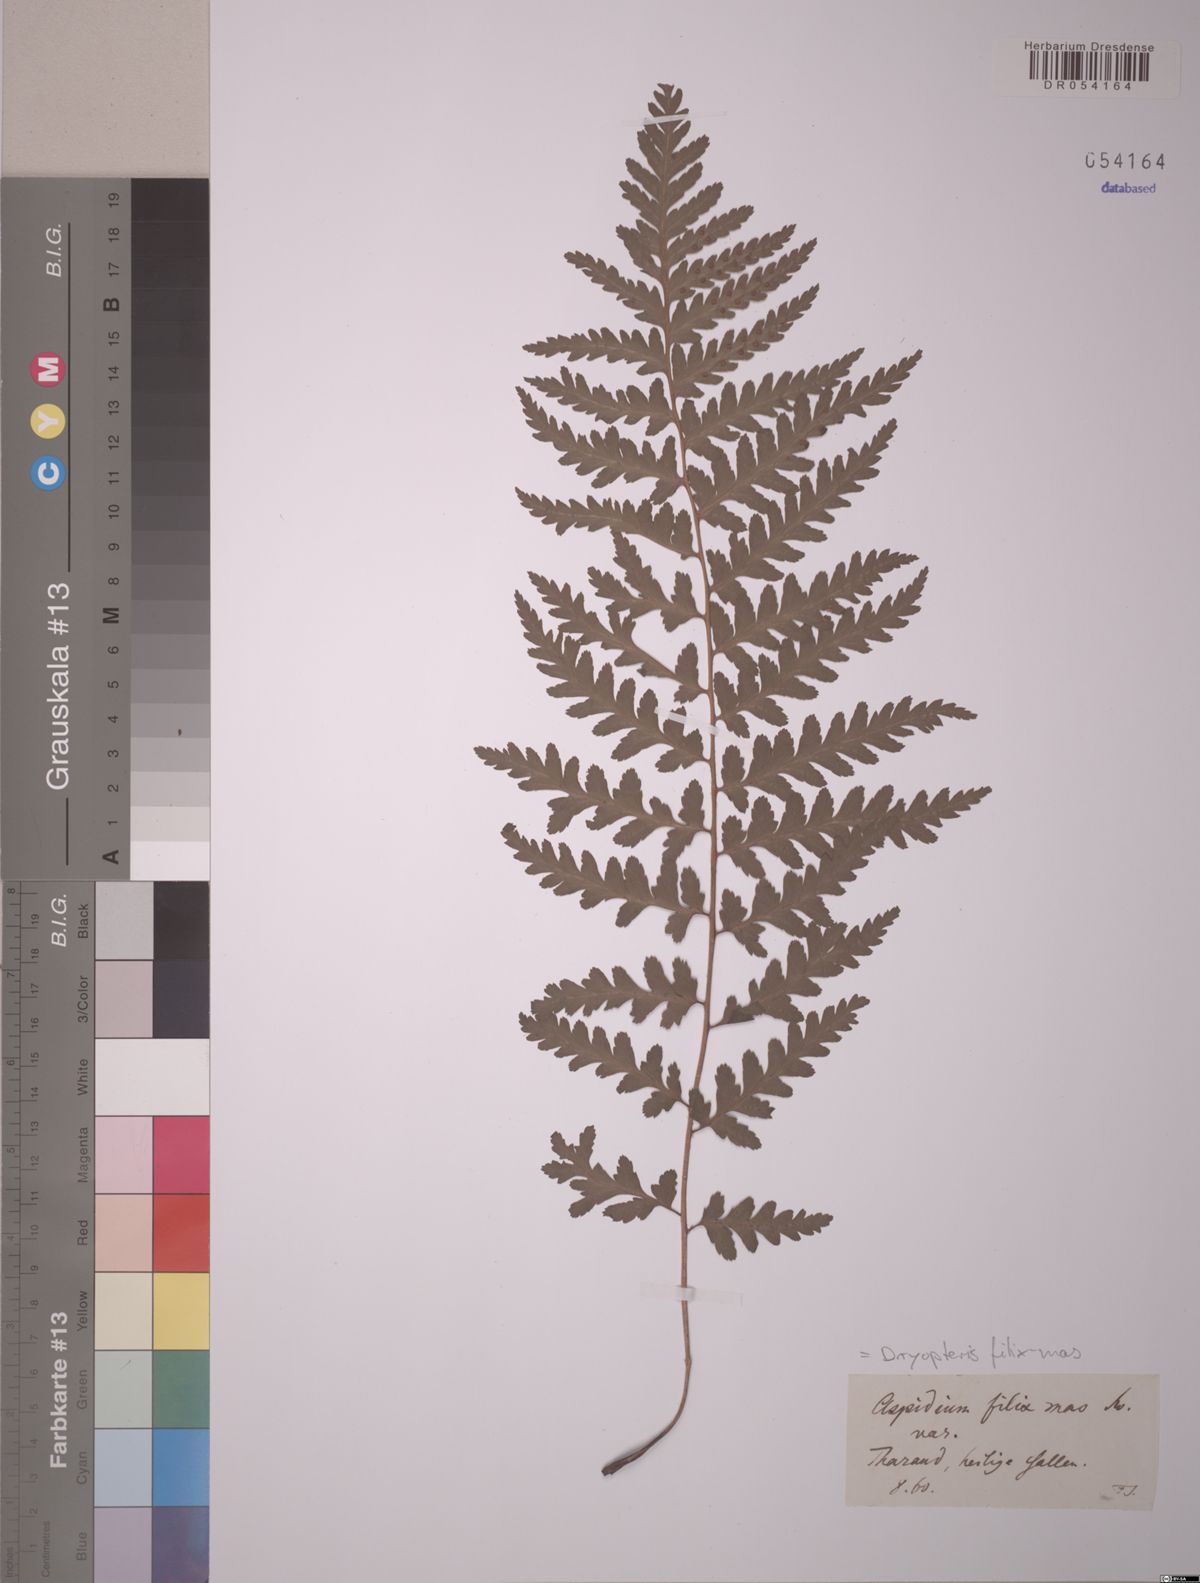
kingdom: Plantae
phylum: Tracheophyta
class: Polypodiopsida
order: Polypodiales
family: Dryopteridaceae
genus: Dryopteris
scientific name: Dryopteris filix-mas
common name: Male fern
